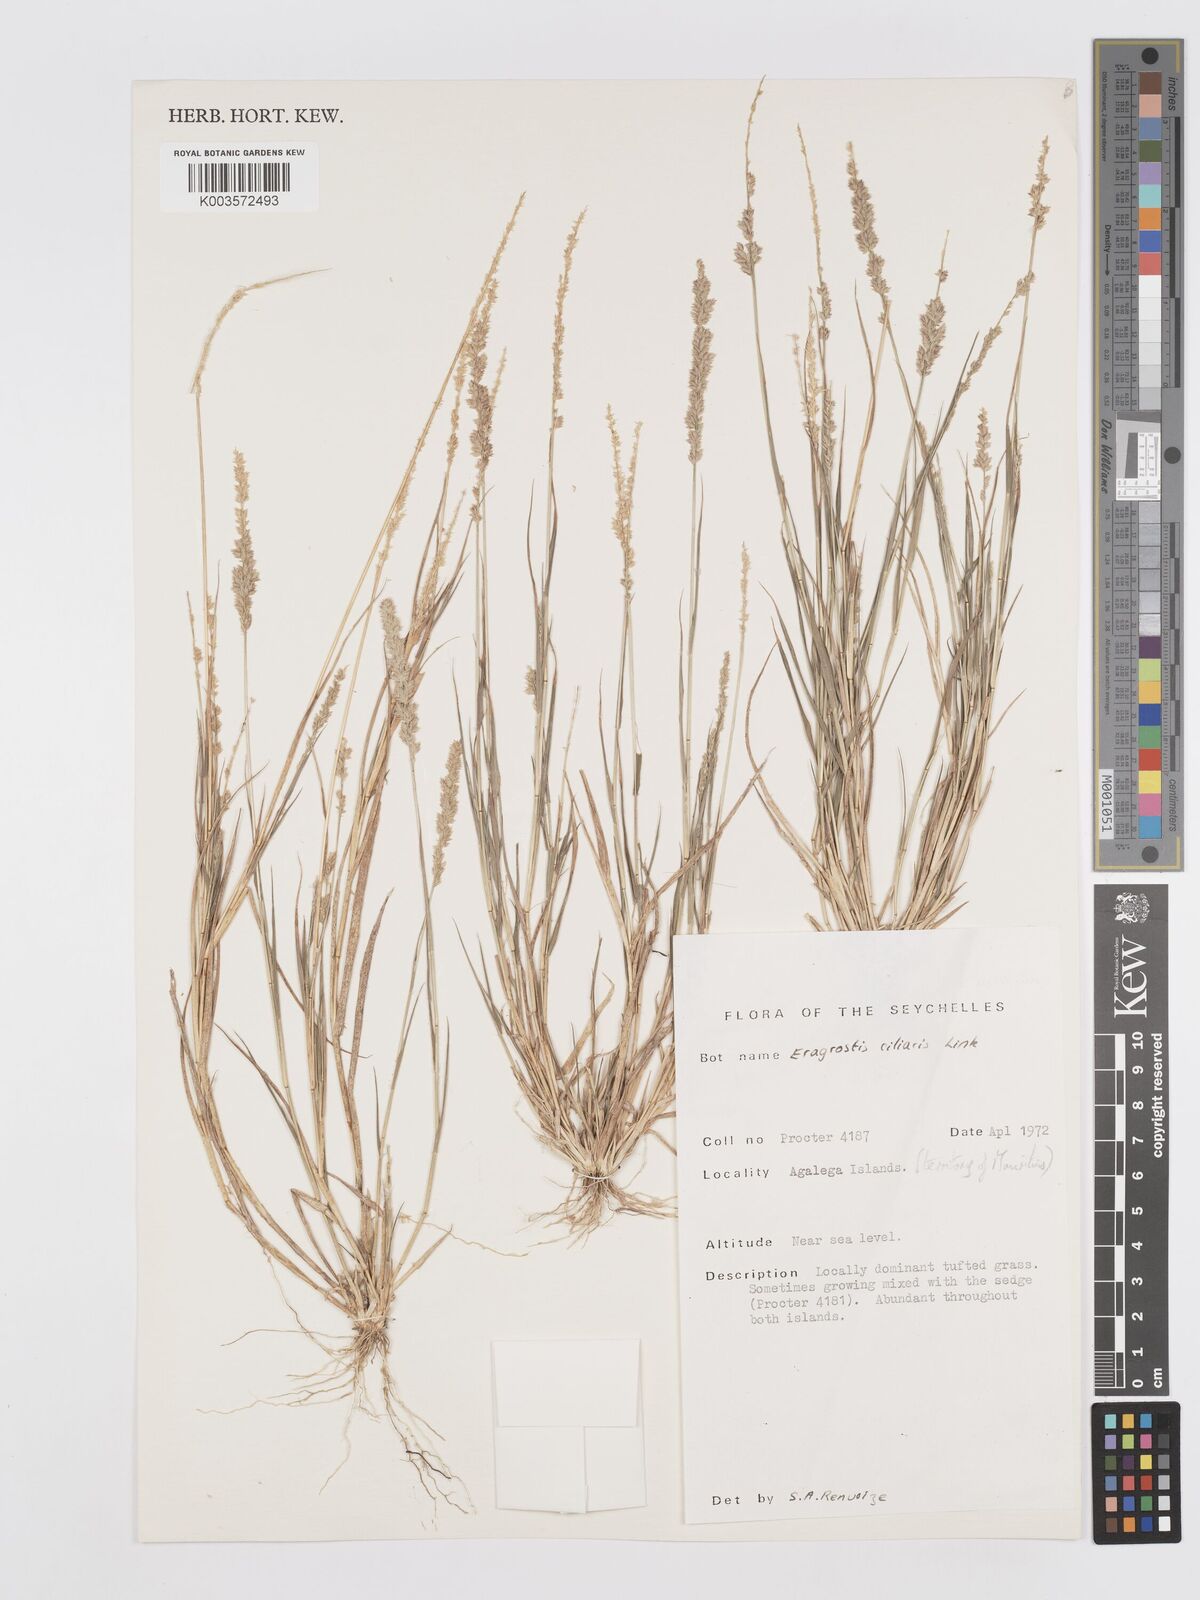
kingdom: Plantae
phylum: Tracheophyta
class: Liliopsida
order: Poales
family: Poaceae
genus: Eragrostis
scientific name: Eragrostis ciliaris
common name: Gophertail lovegrass
